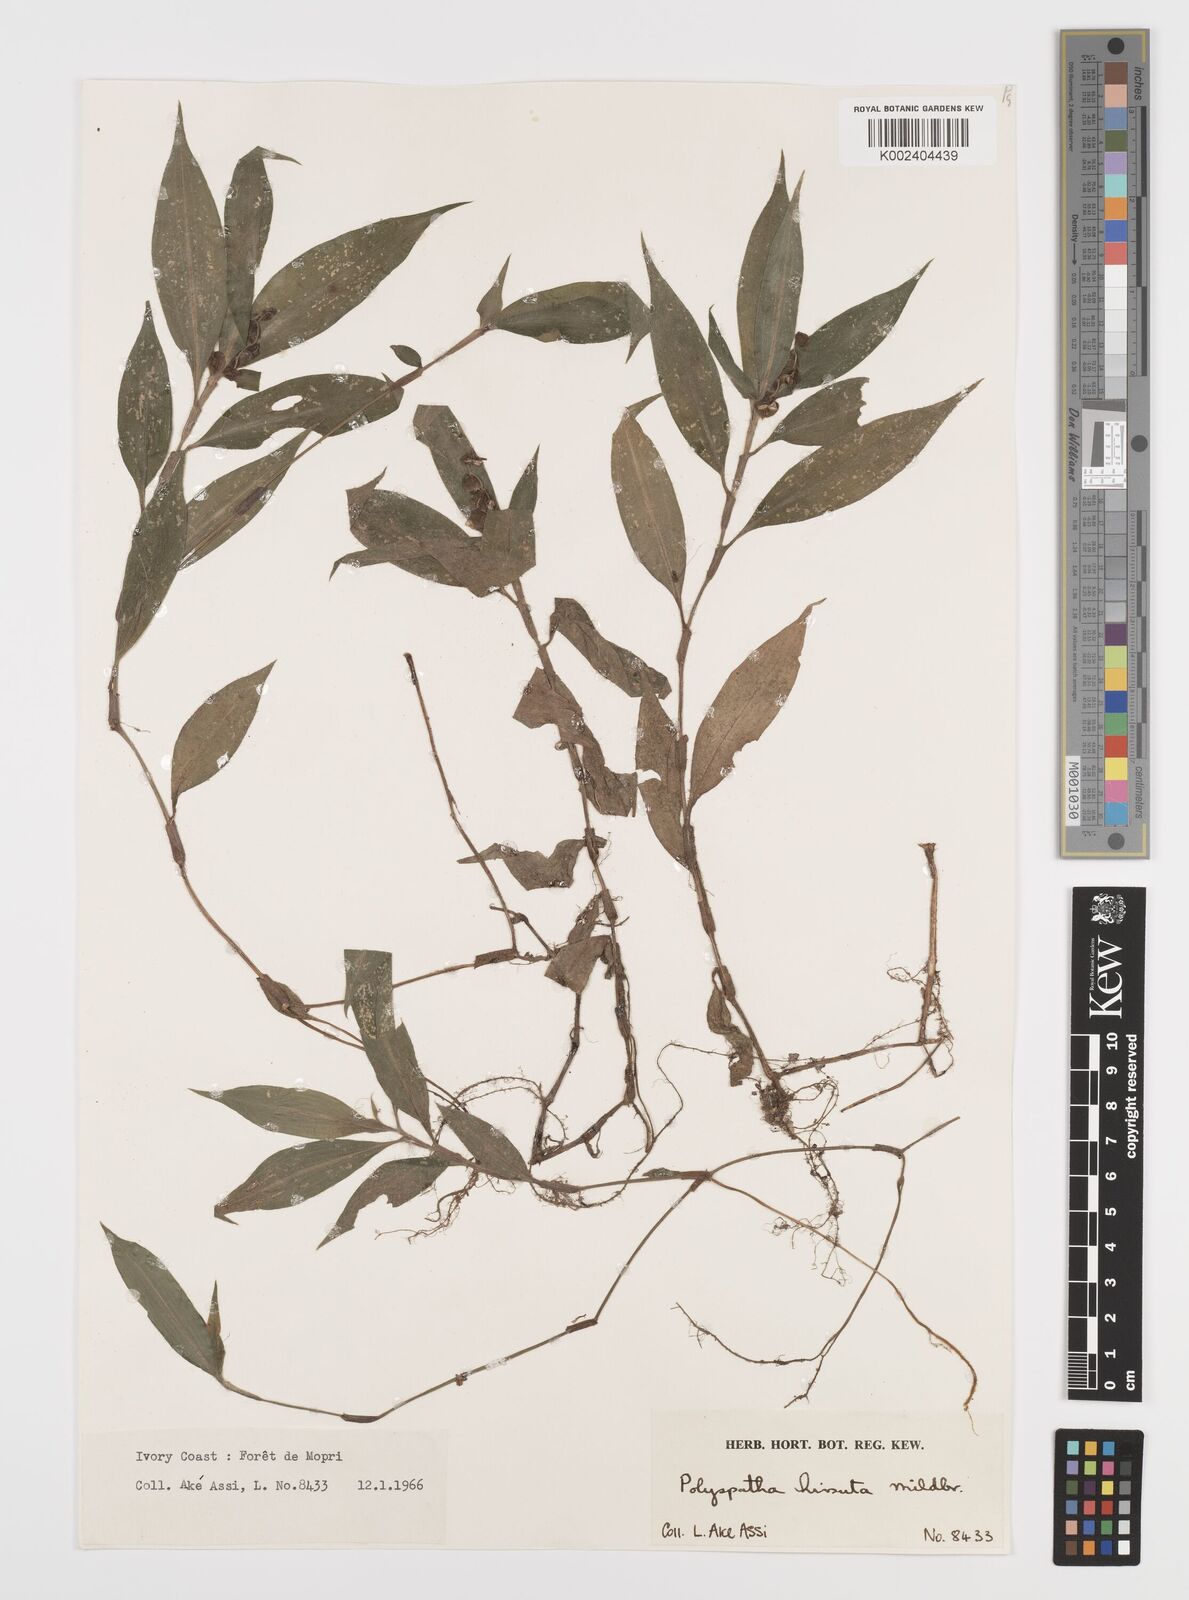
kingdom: Plantae
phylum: Tracheophyta
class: Liliopsida
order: Commelinales
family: Commelinaceae
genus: Polyspatha
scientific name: Polyspatha hirsuta
